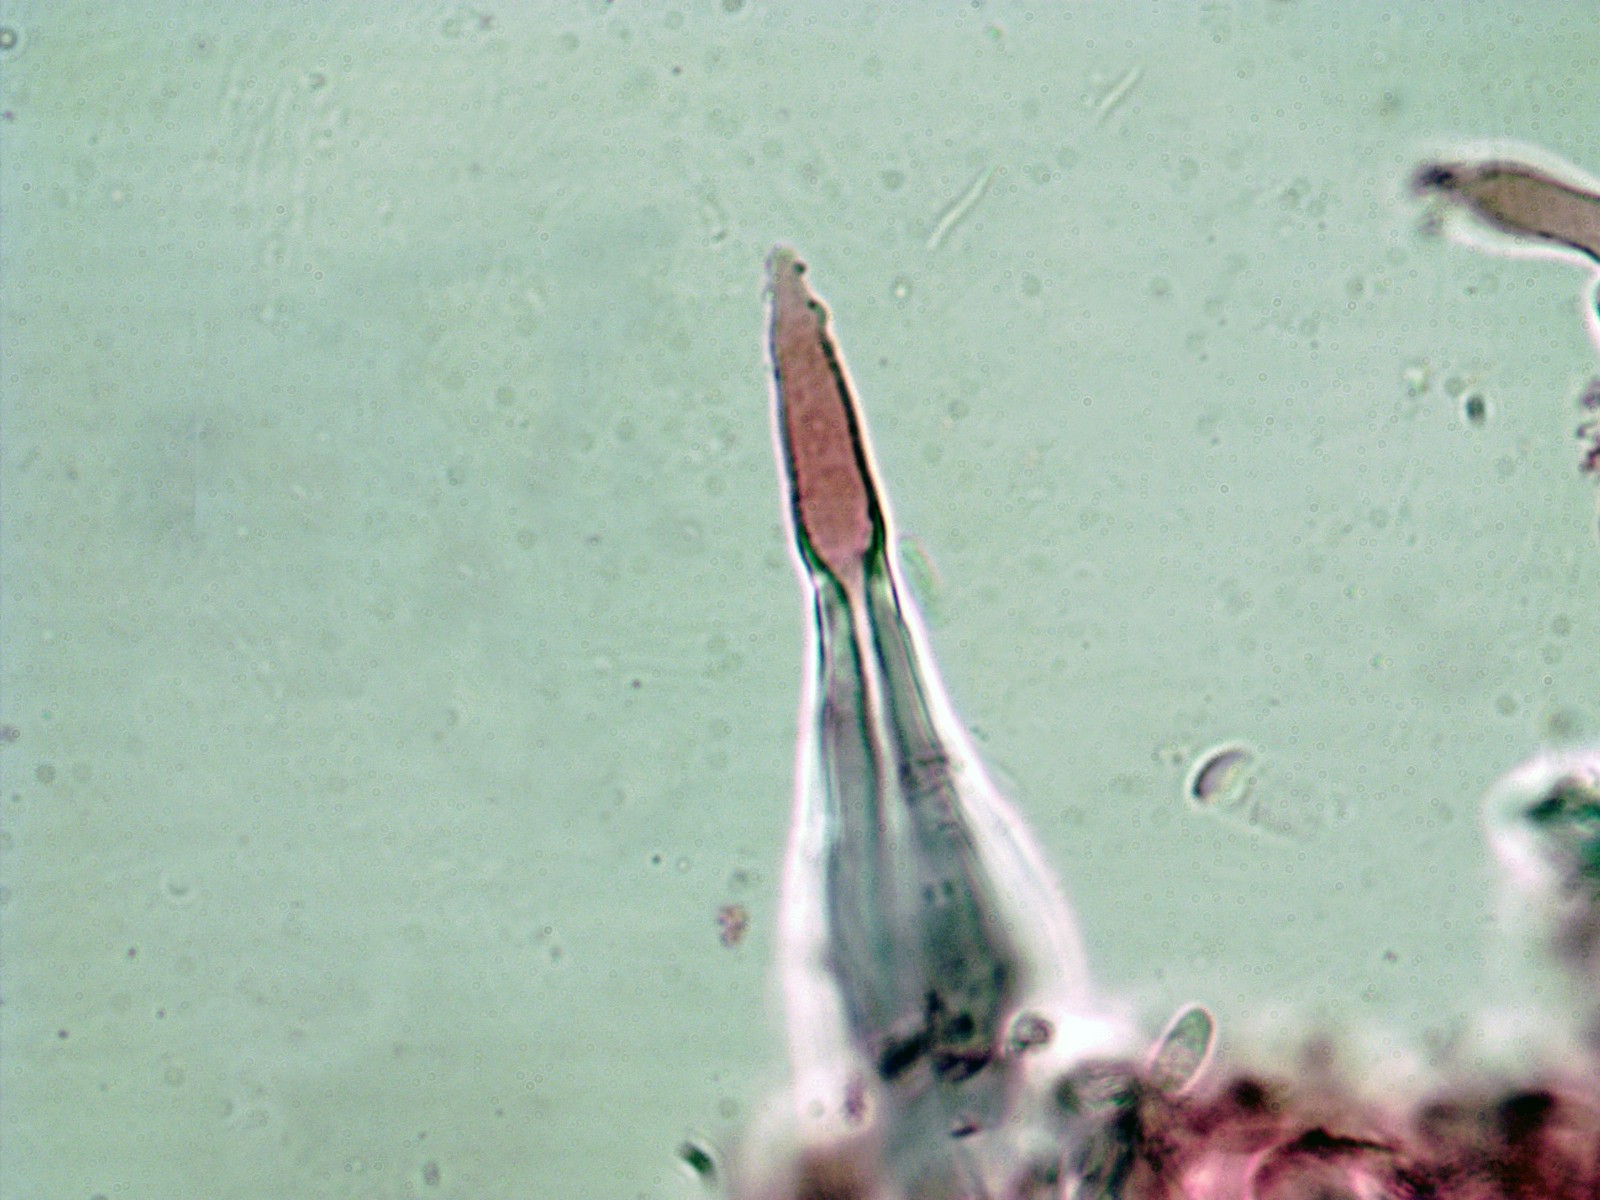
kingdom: Fungi
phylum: Basidiomycota
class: Agaricomycetes
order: Hymenochaetales
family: Hymenochaetaceae
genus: Tubulicrinis
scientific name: Tubulicrinis subulatus
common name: spids nålehinde
